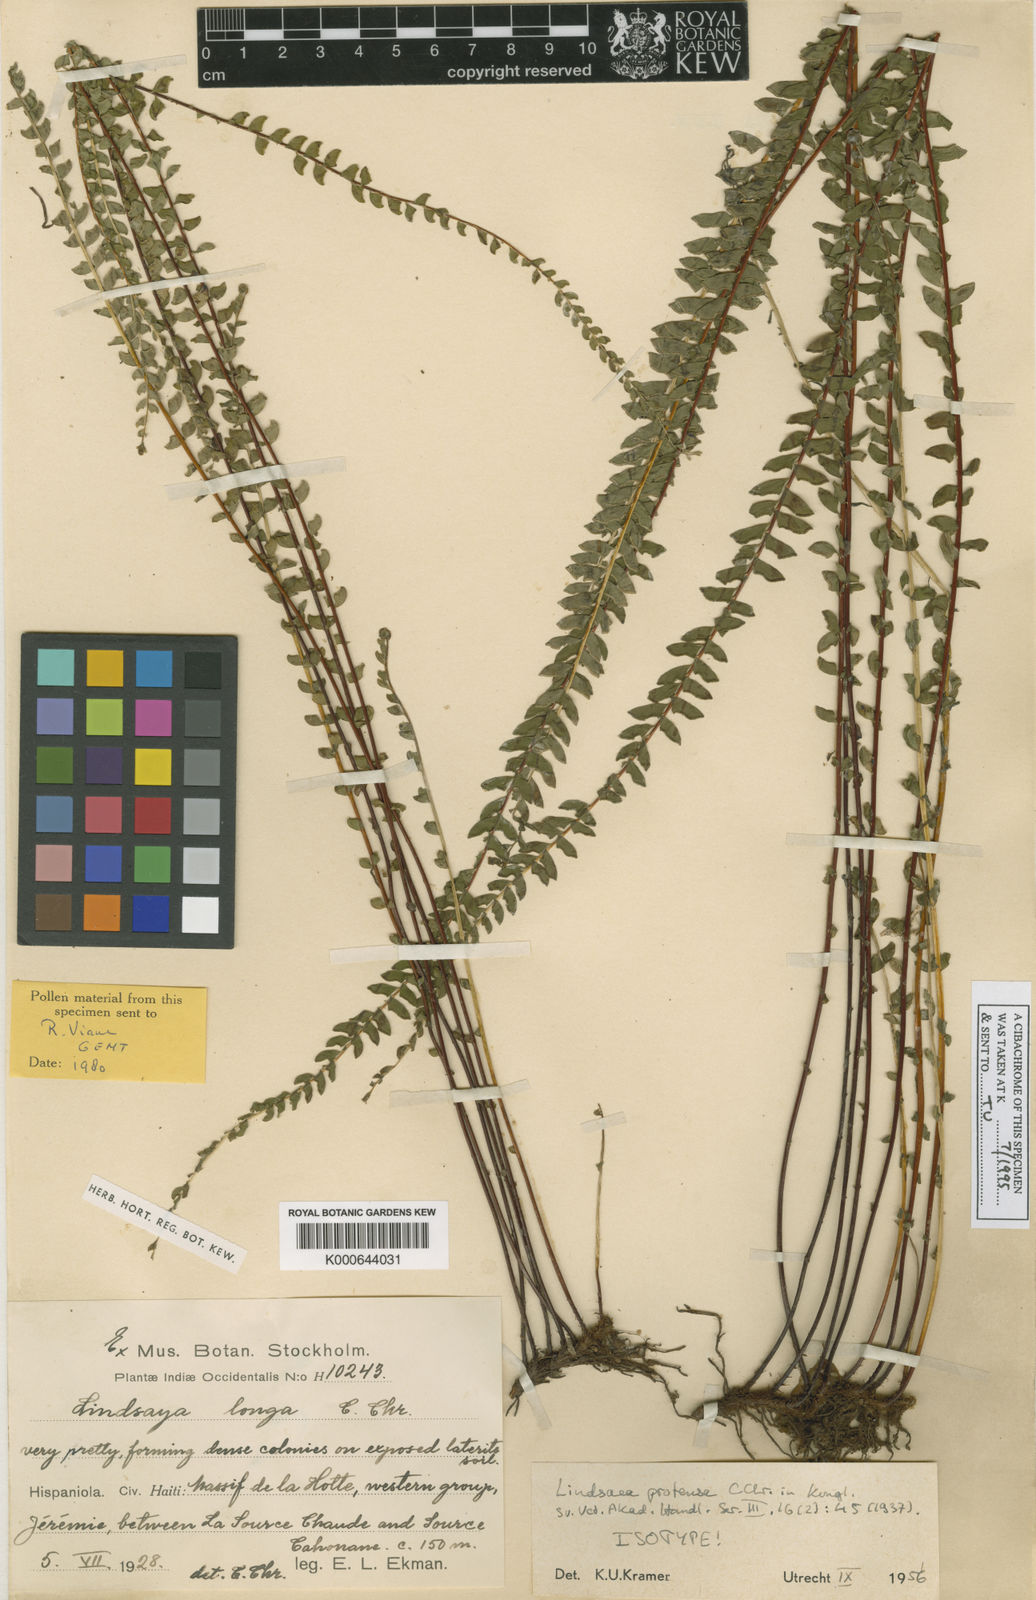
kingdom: Plantae
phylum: Tracheophyta
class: Polypodiopsida
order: Polypodiales
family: Lindsaeaceae
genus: Lindsaea
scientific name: Lindsaea protensa
